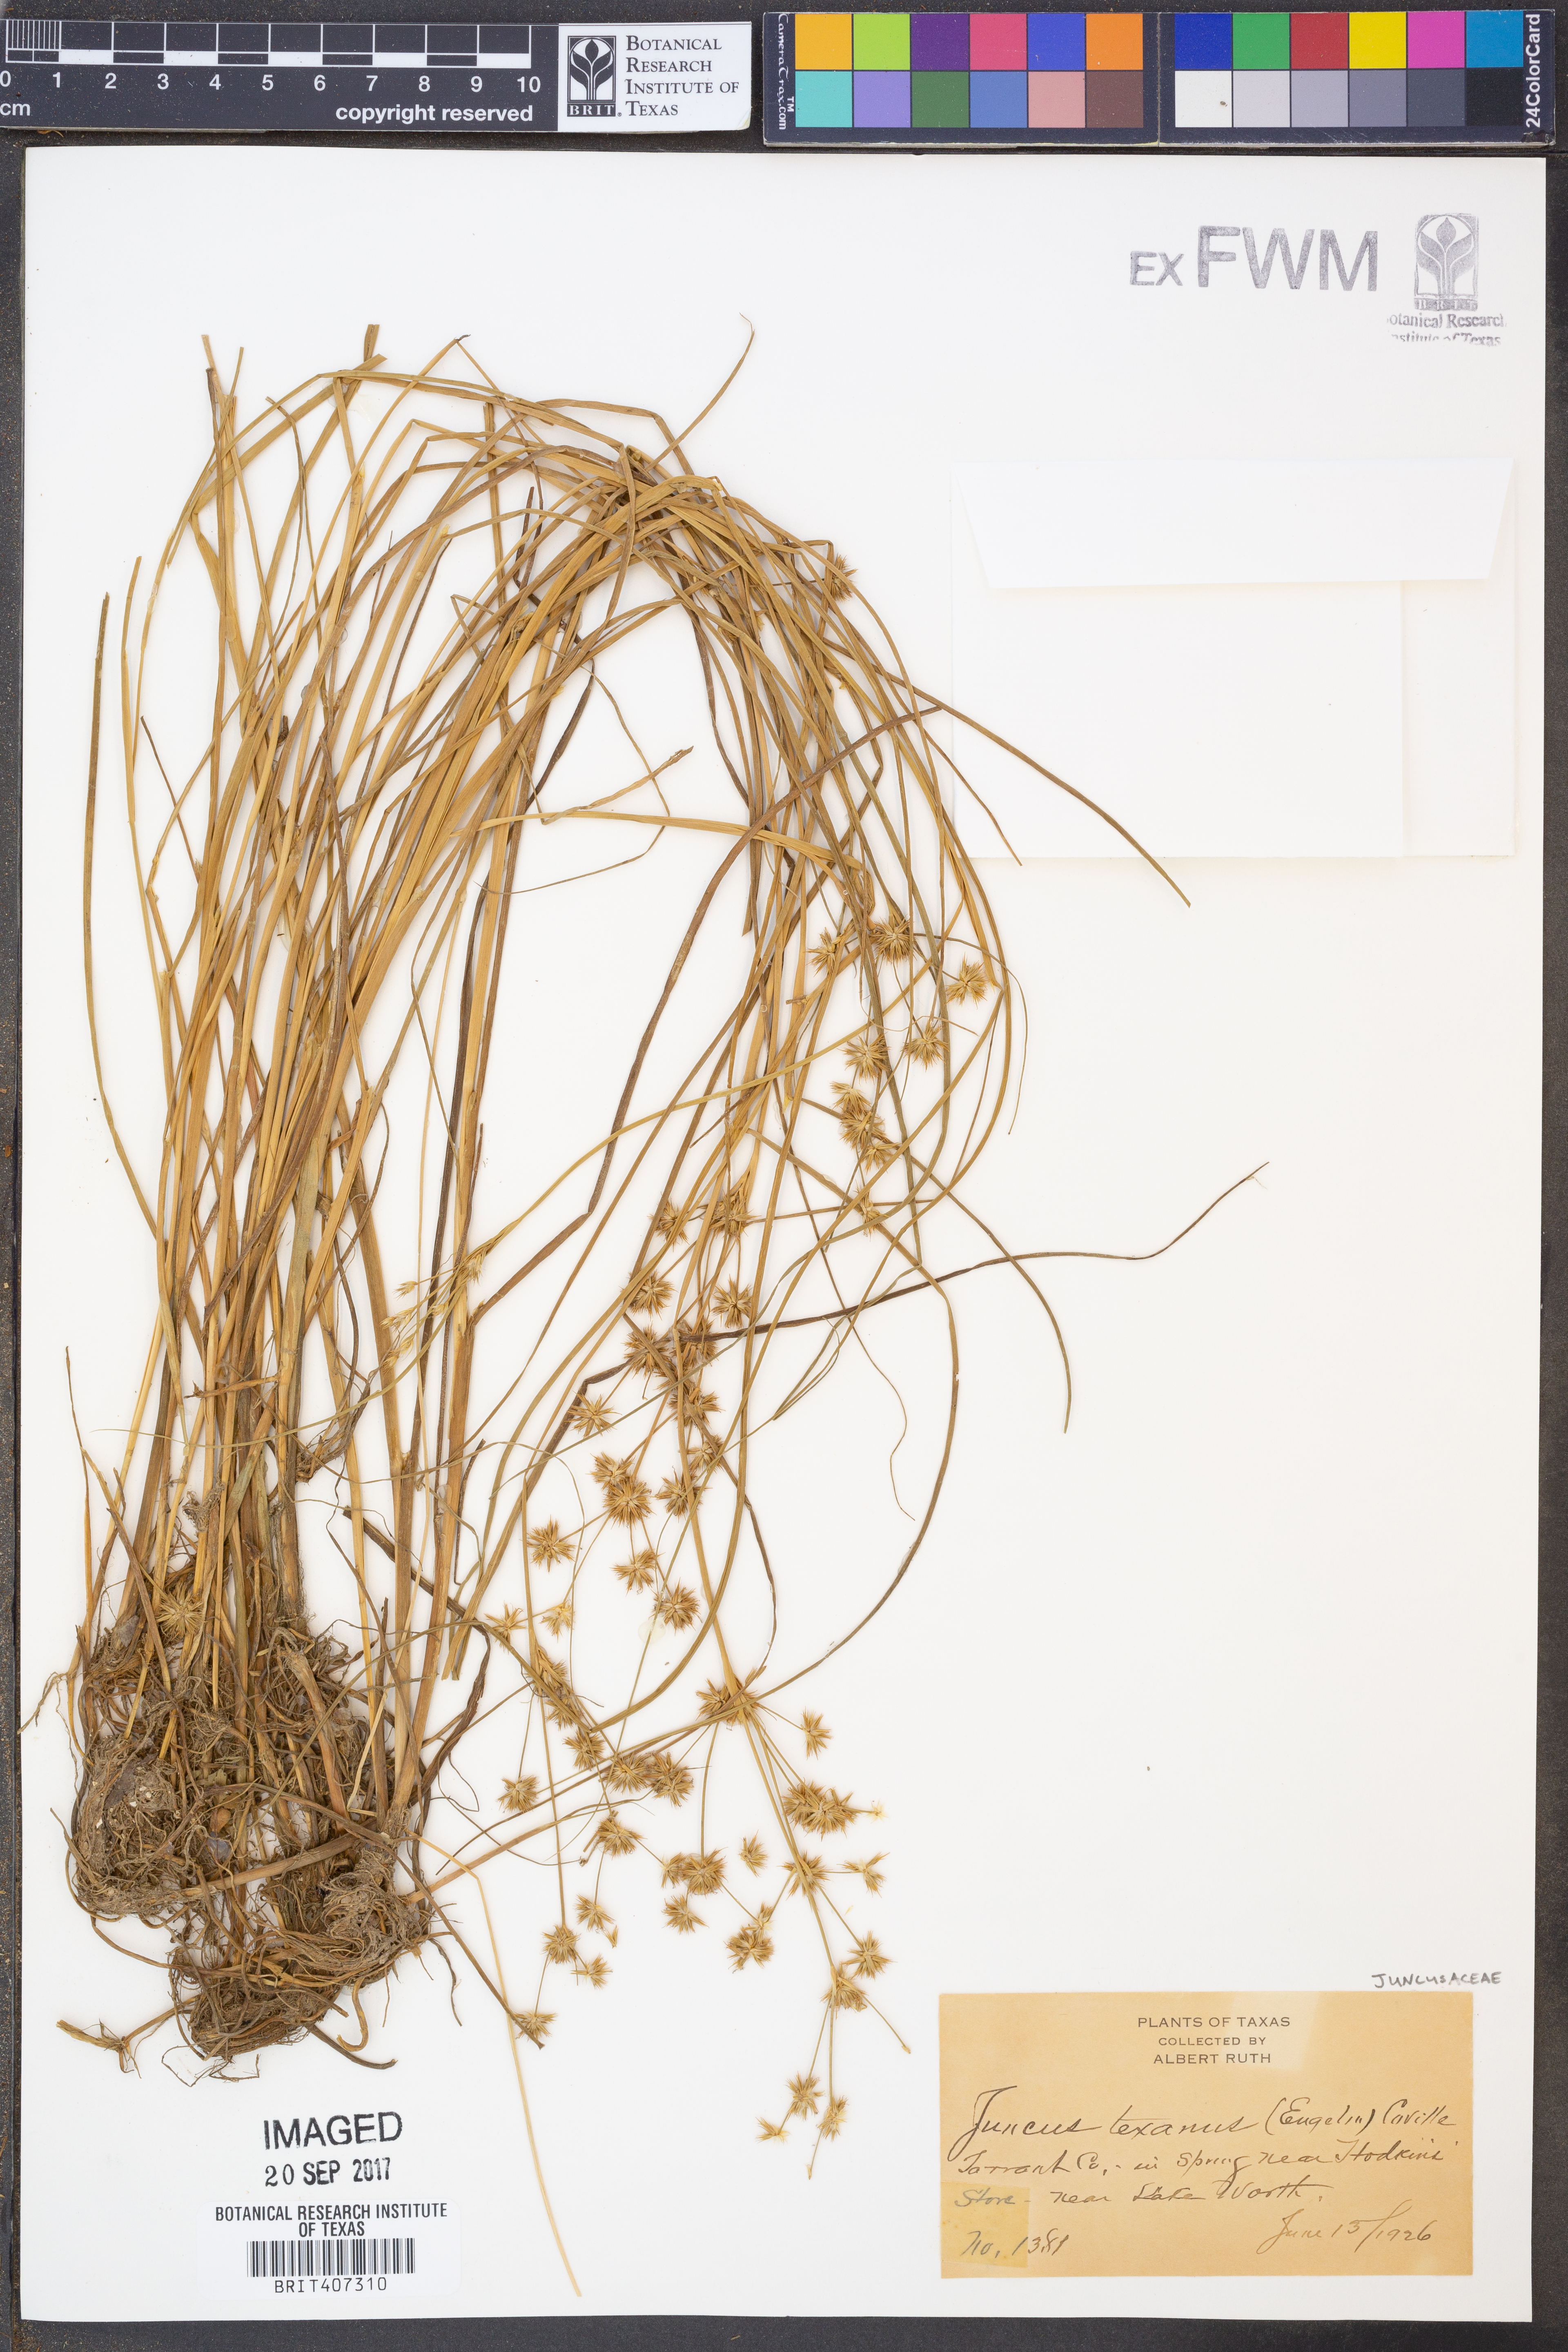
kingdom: Plantae
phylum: Tracheophyta
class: Liliopsida
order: Poales
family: Juncaceae
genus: Juncus
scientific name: Juncus texanus
